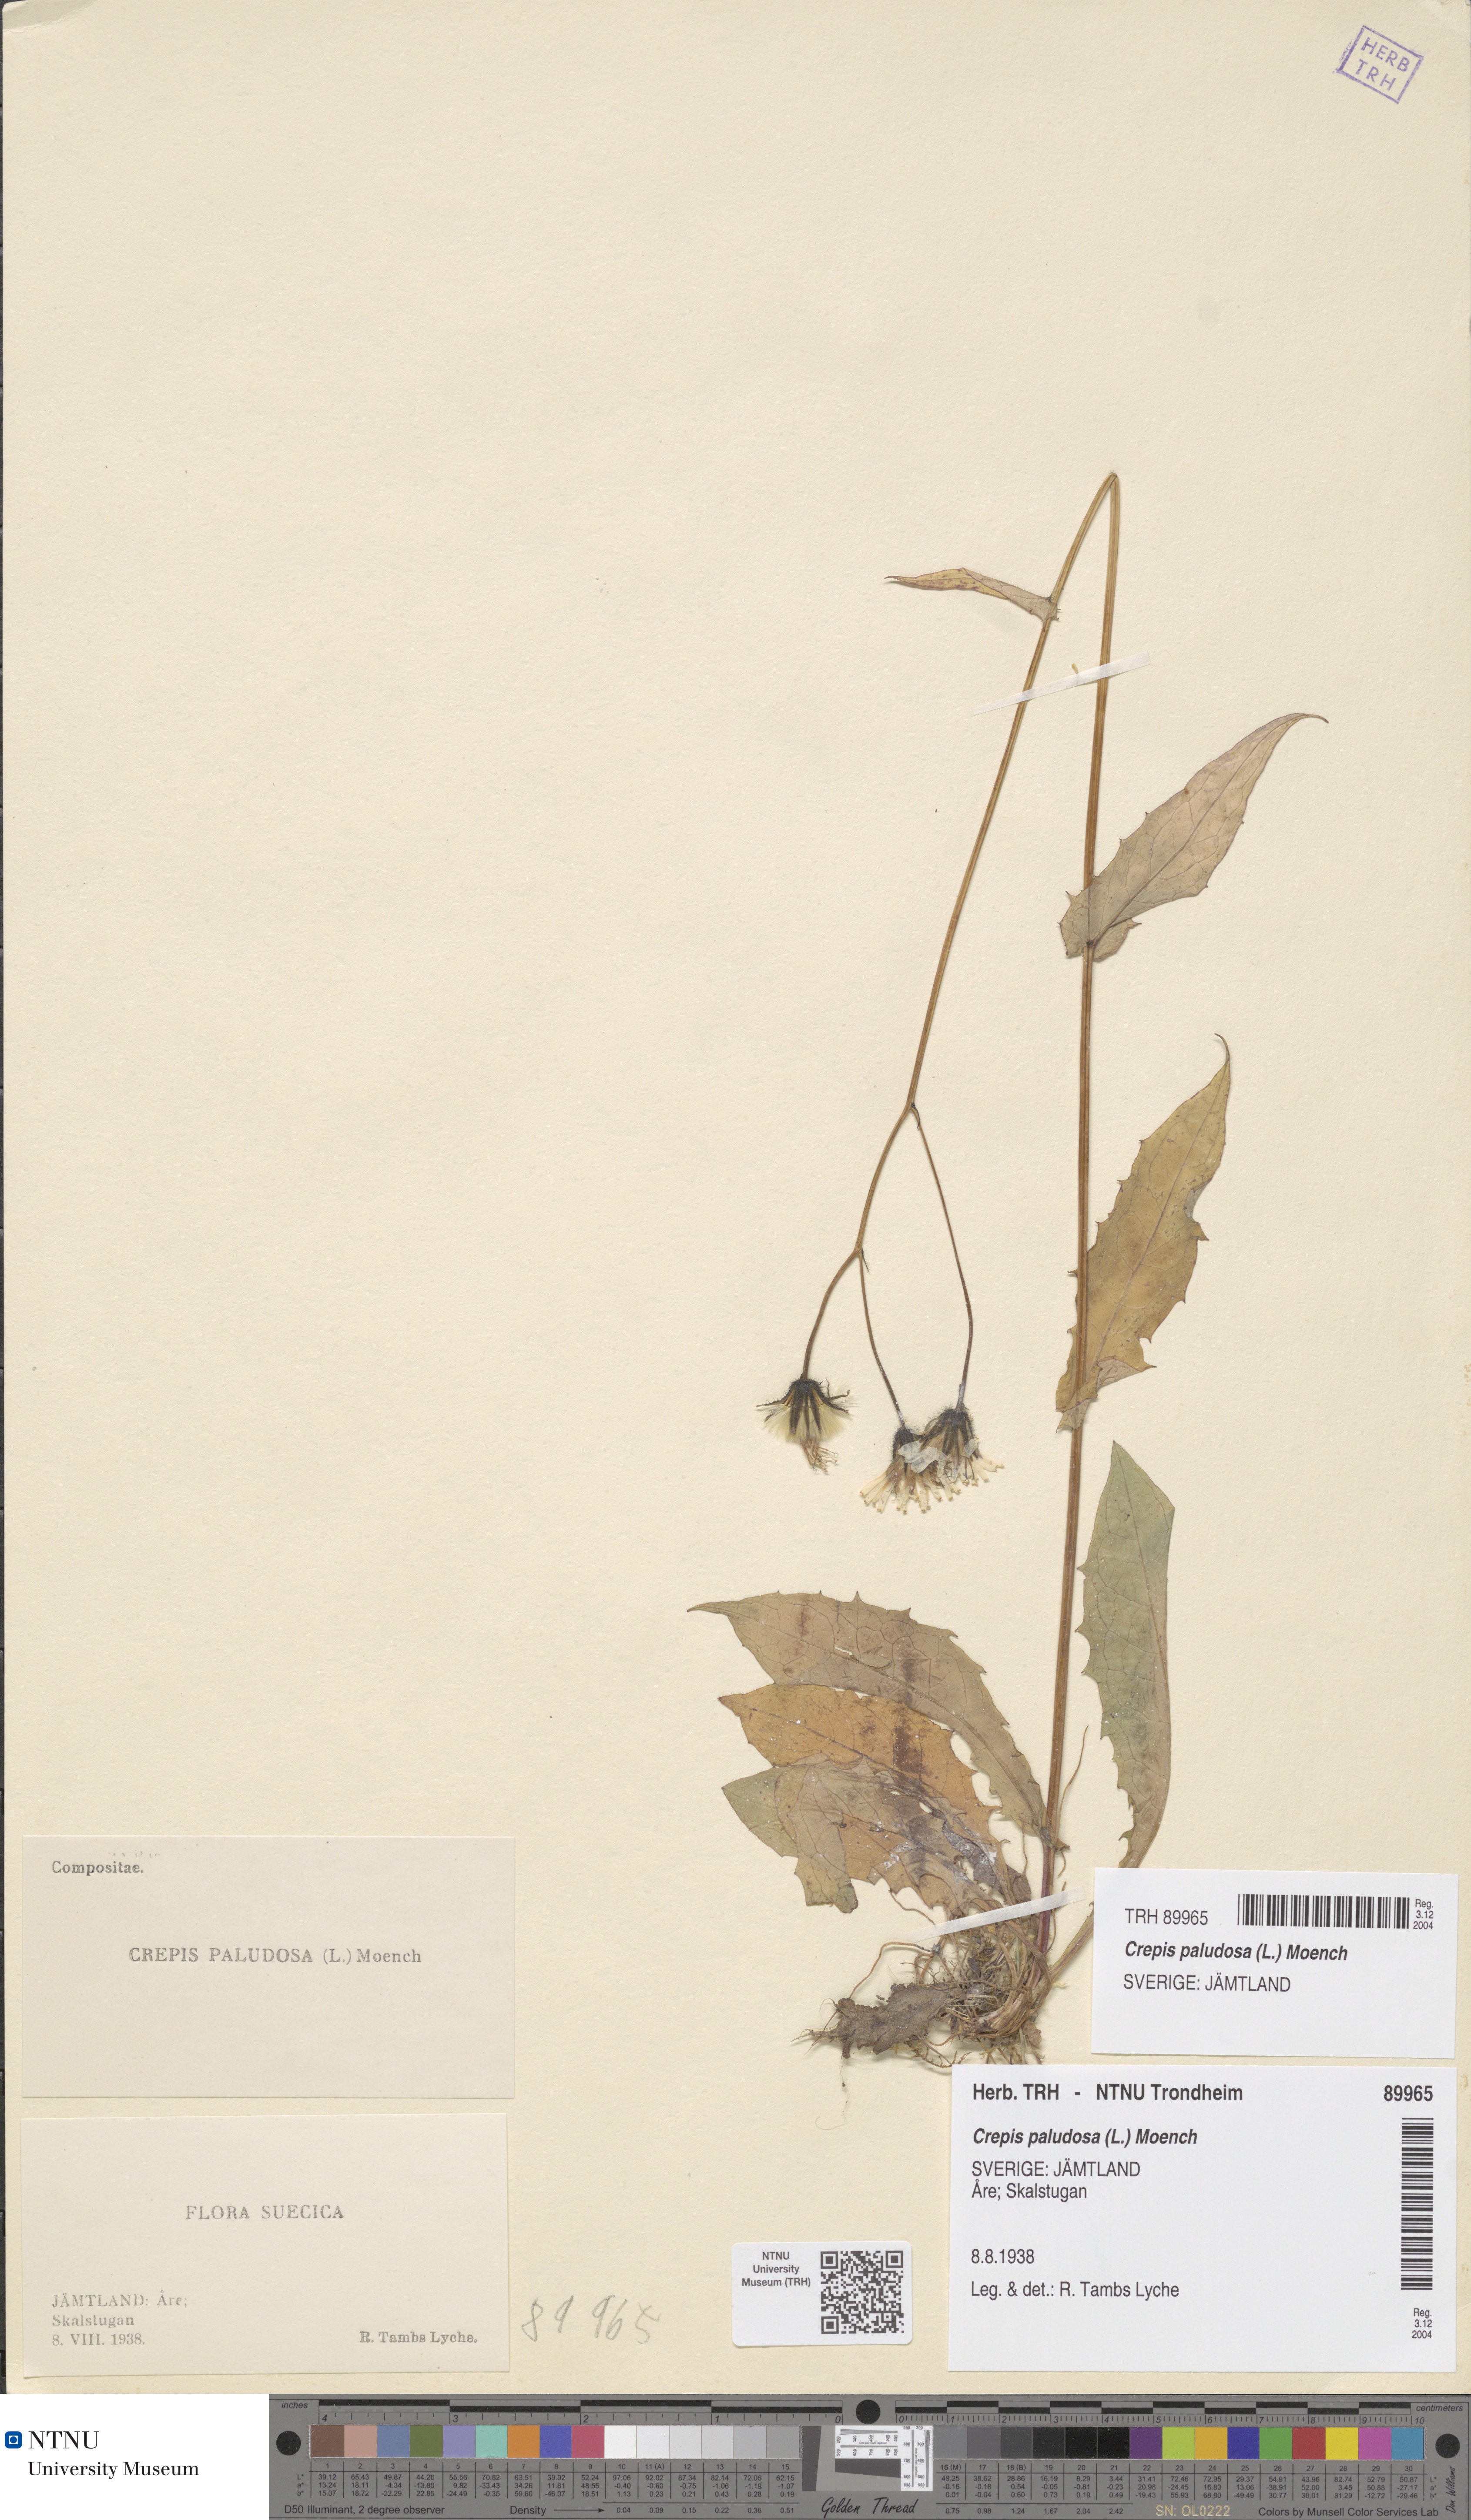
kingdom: Plantae
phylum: Tracheophyta
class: Magnoliopsida
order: Asterales
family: Asteraceae
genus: Crepis
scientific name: Crepis paludosa
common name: Marsh hawk's-beard
